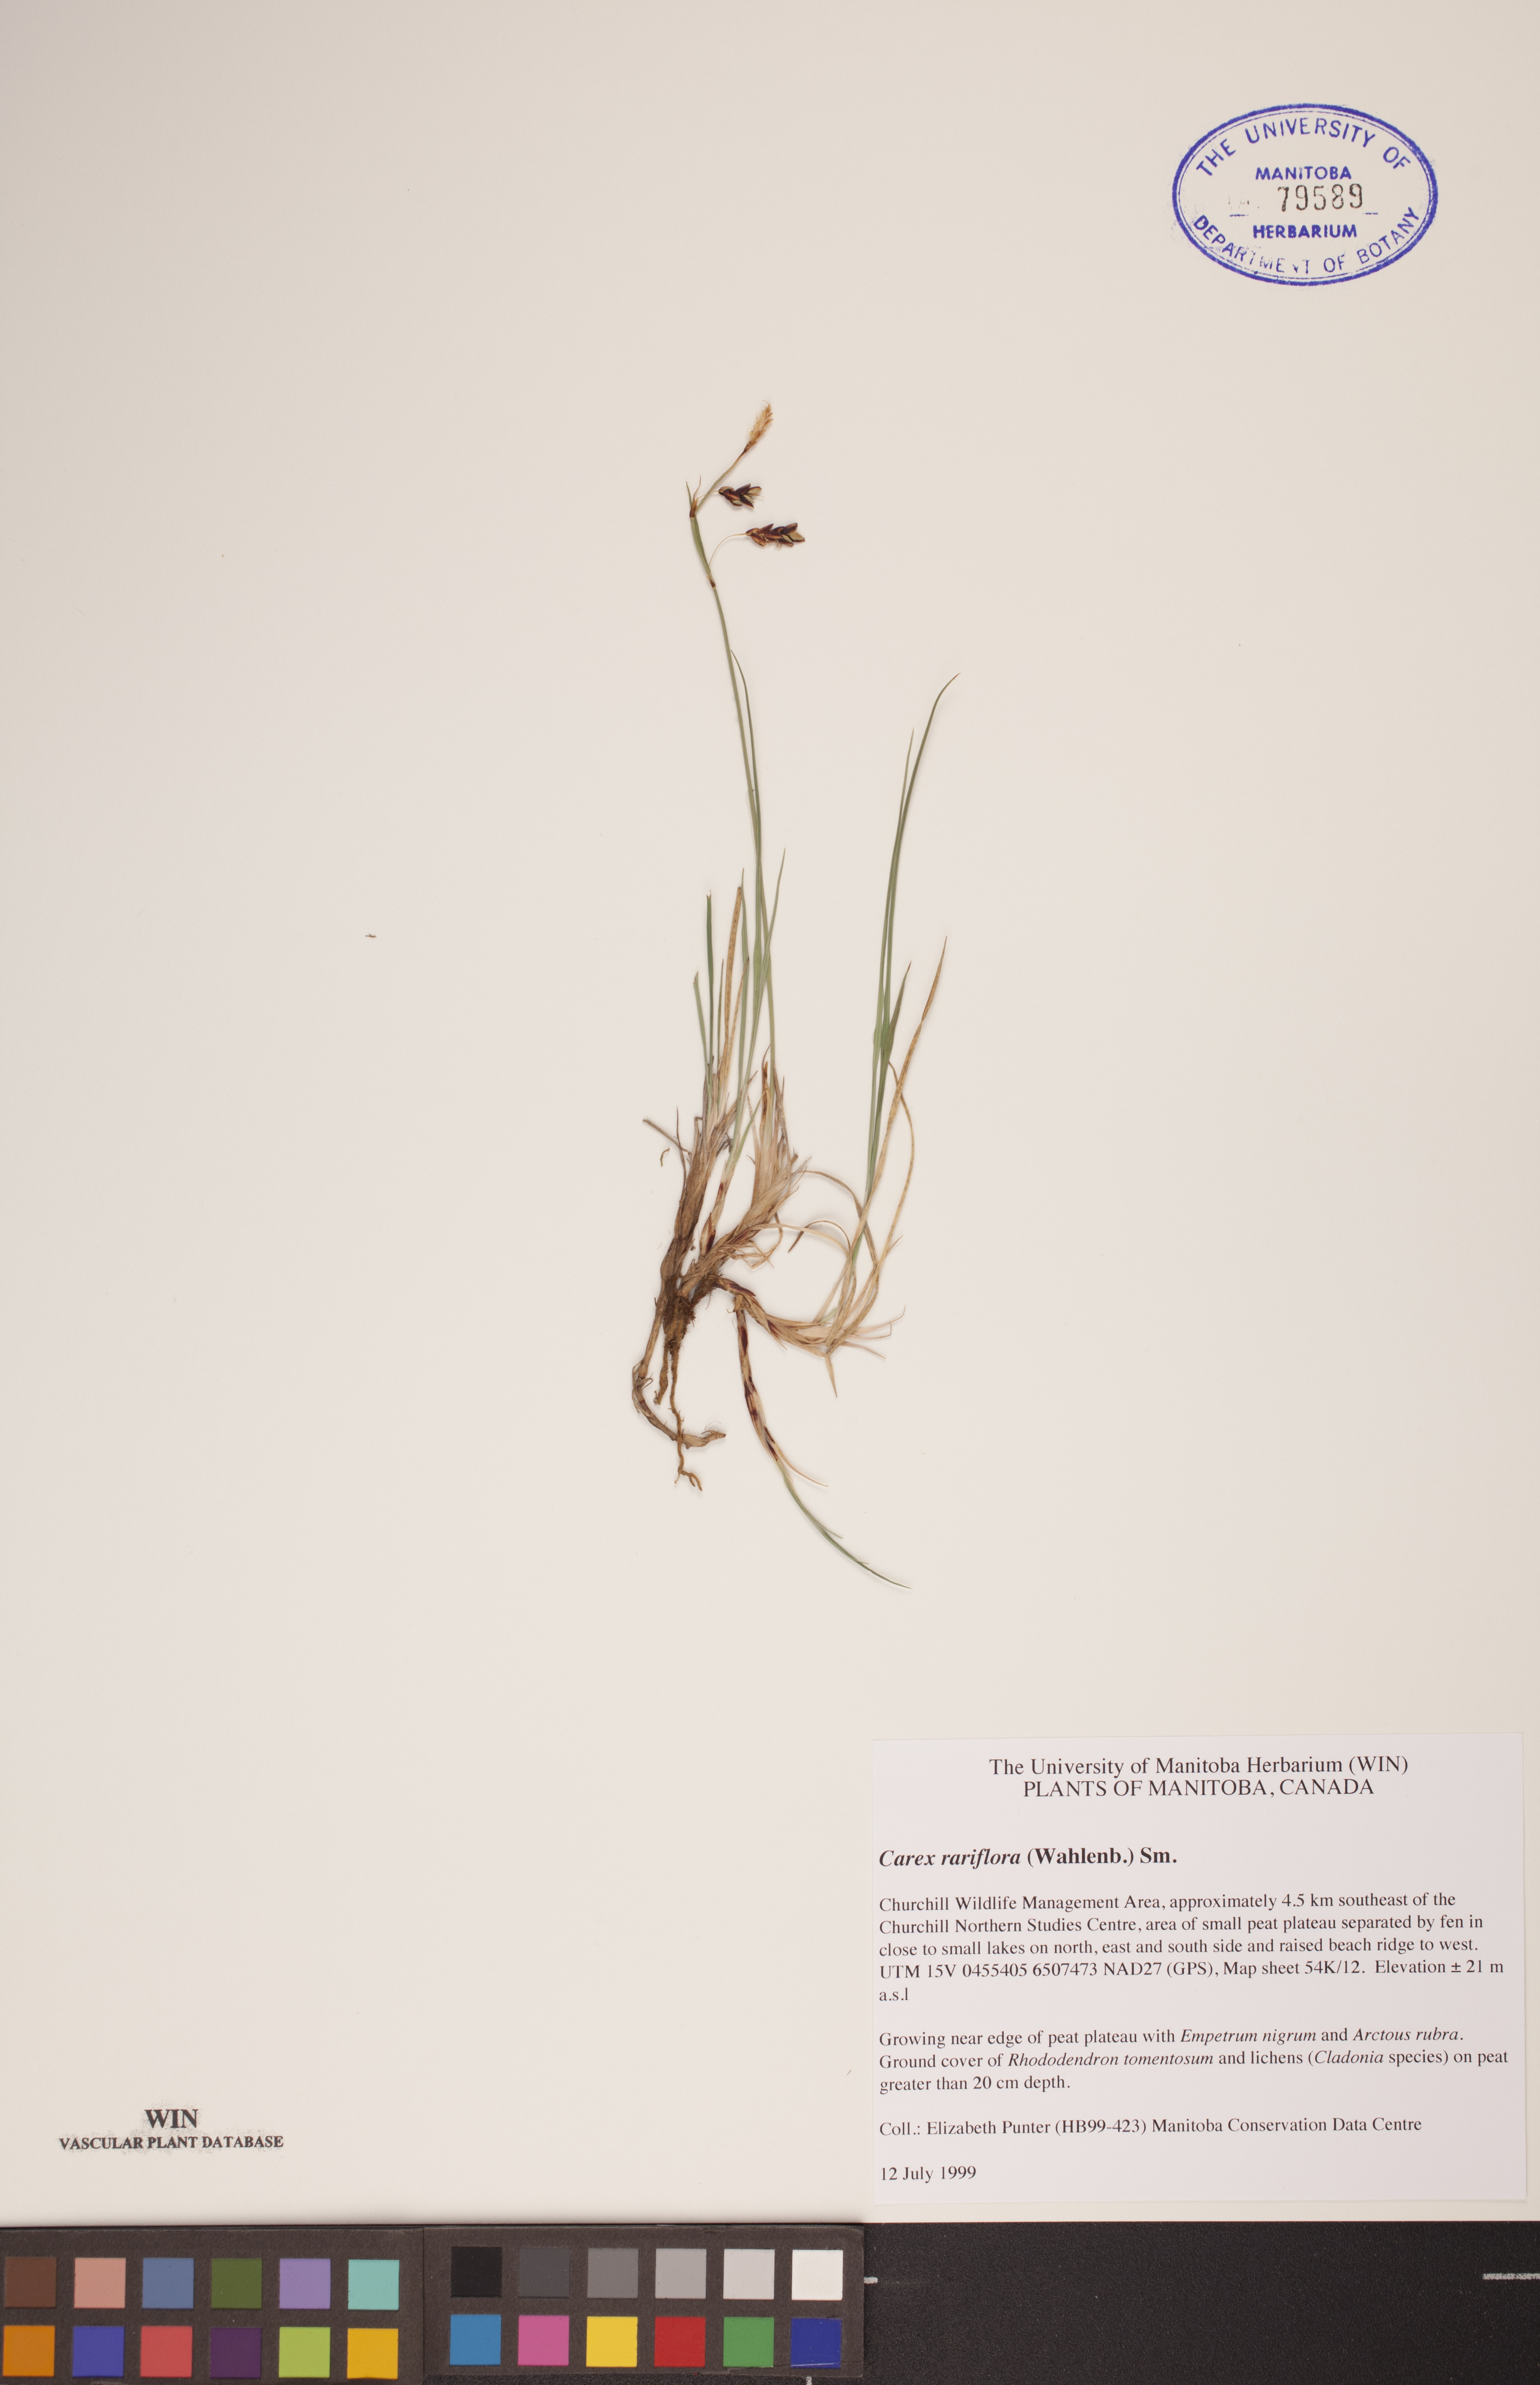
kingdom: Plantae
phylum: Tracheophyta
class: Liliopsida
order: Poales
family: Cyperaceae
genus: Carex
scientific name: Carex rariflora
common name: Loose-flowered alpine sedge
